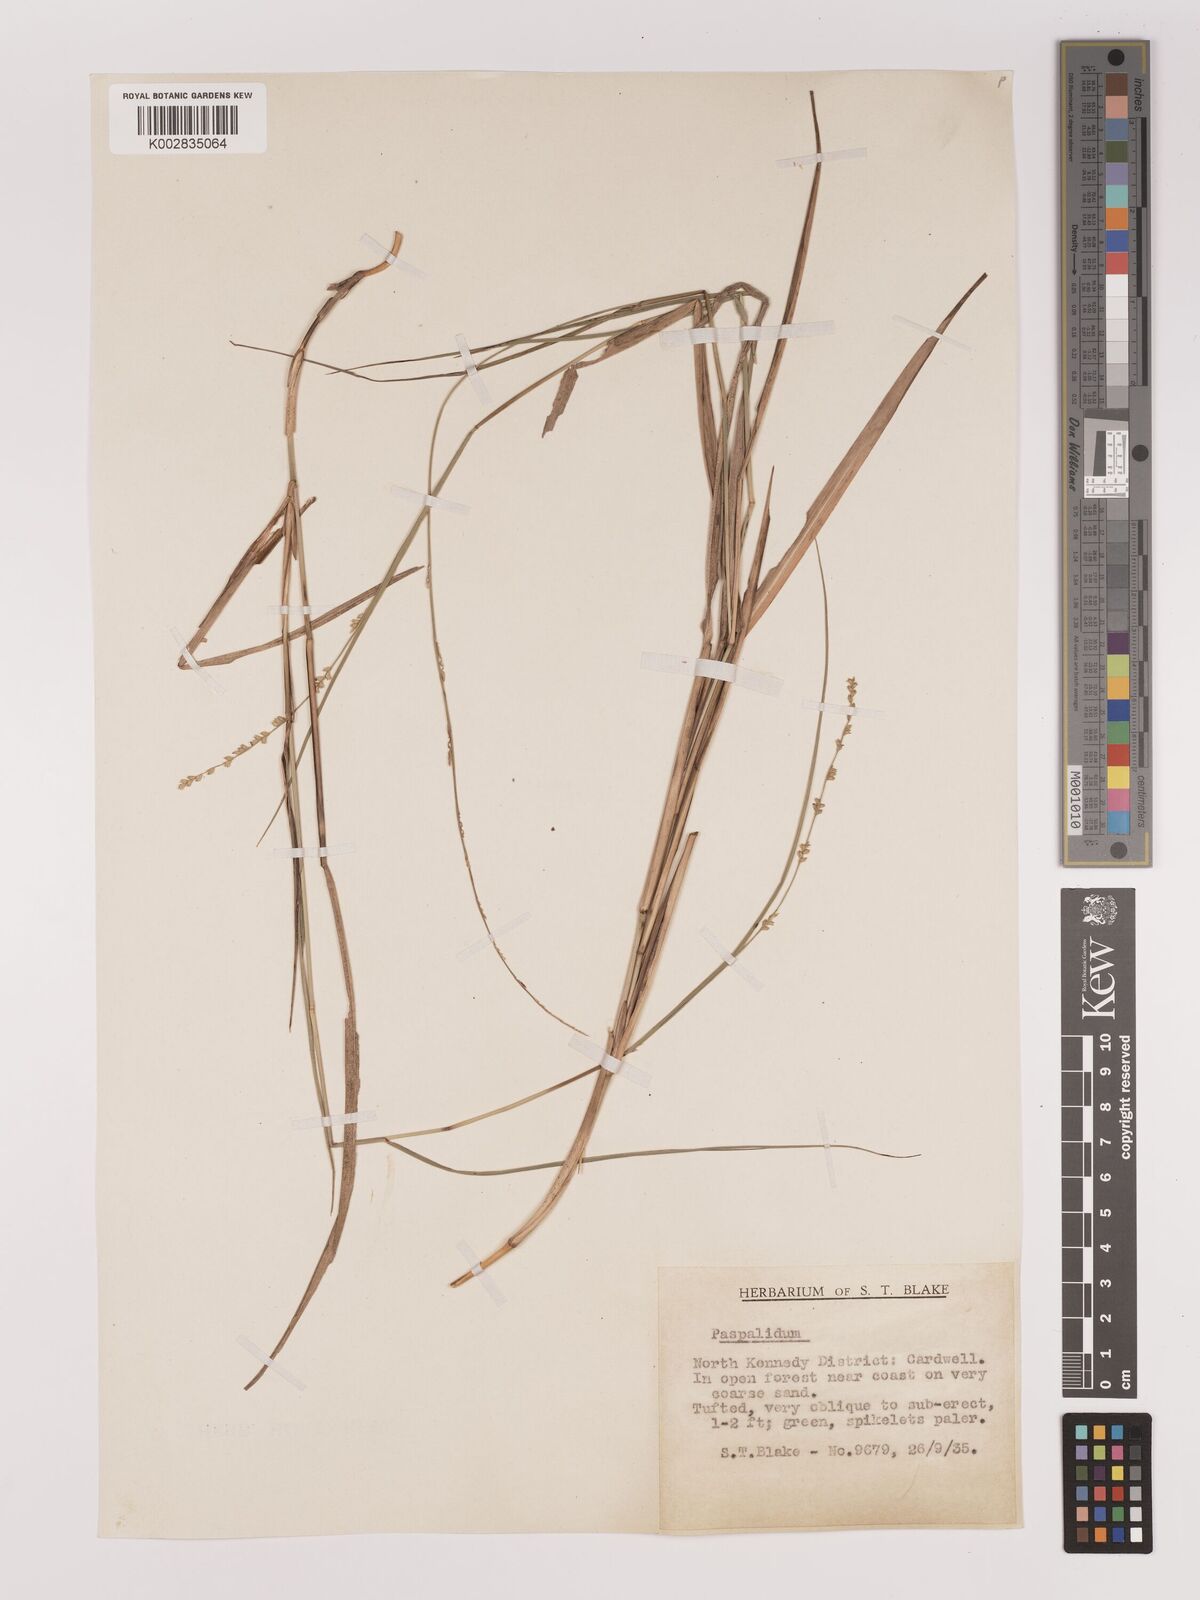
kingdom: Plantae
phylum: Tracheophyta
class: Liliopsida
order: Poales
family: Poaceae
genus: Setaria
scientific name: Setaria
